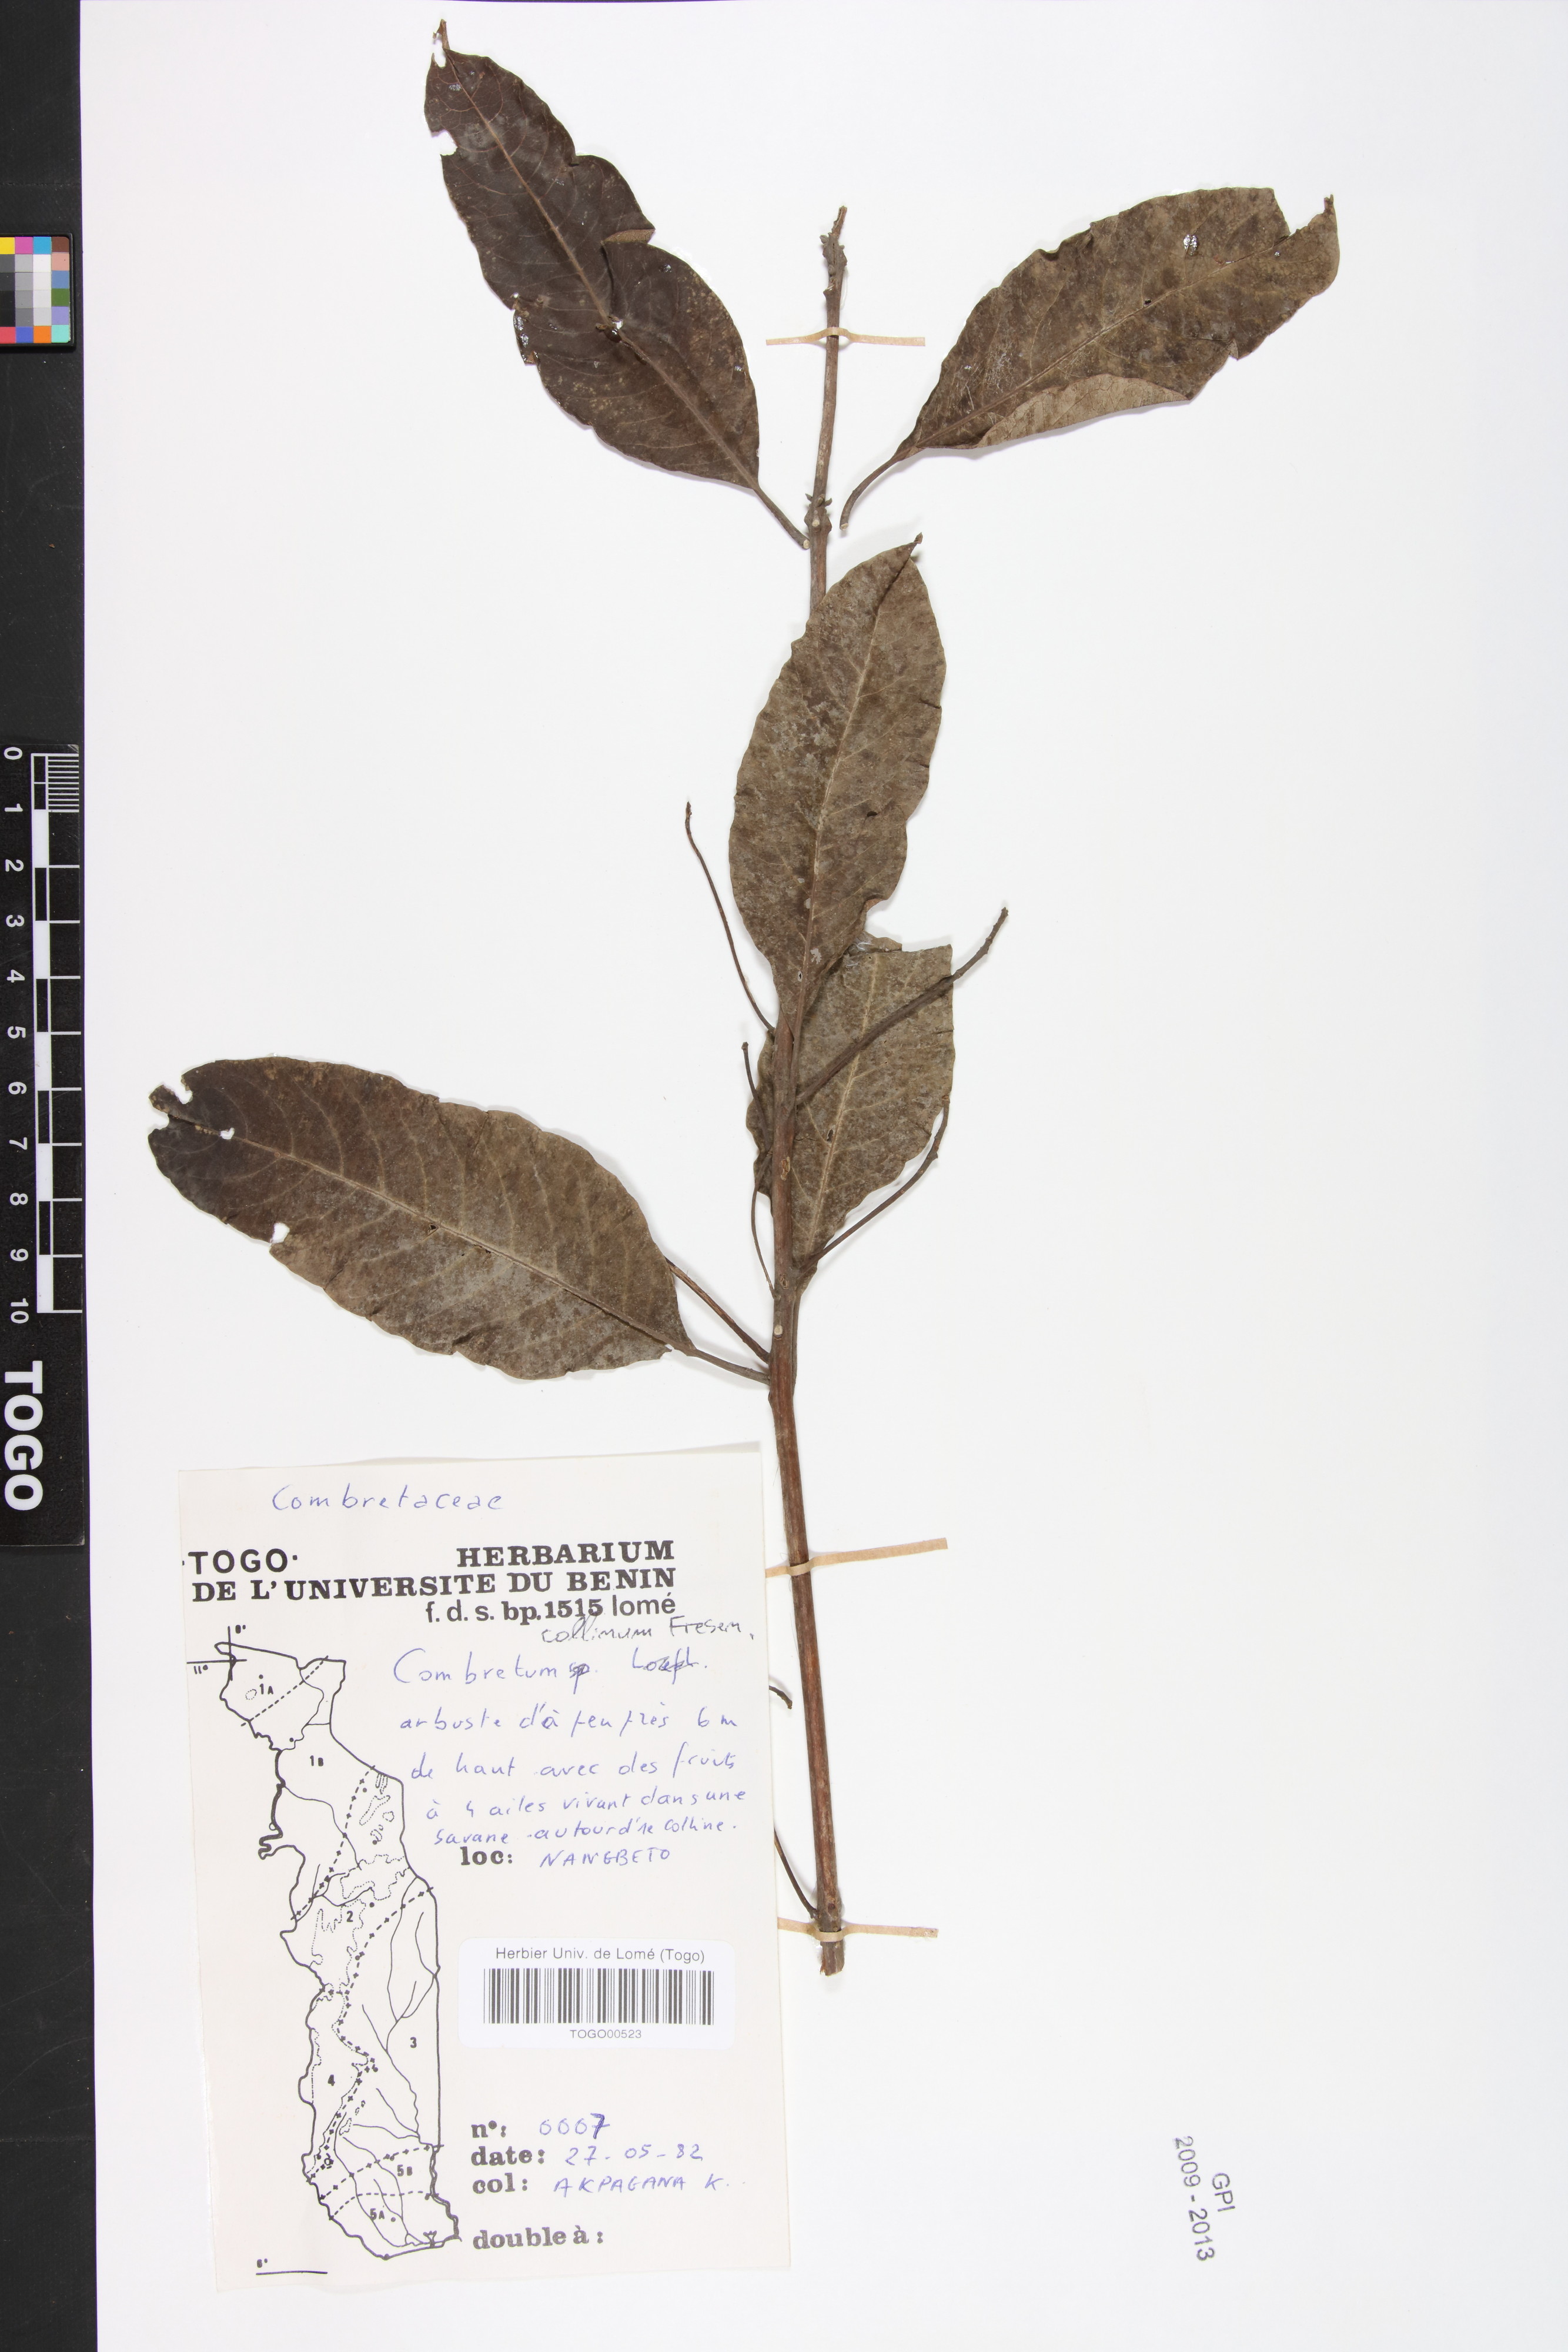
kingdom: Plantae
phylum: Tracheophyta
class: Magnoliopsida
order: Myrtales
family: Combretaceae
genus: Combretum
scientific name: Combretum collinum
